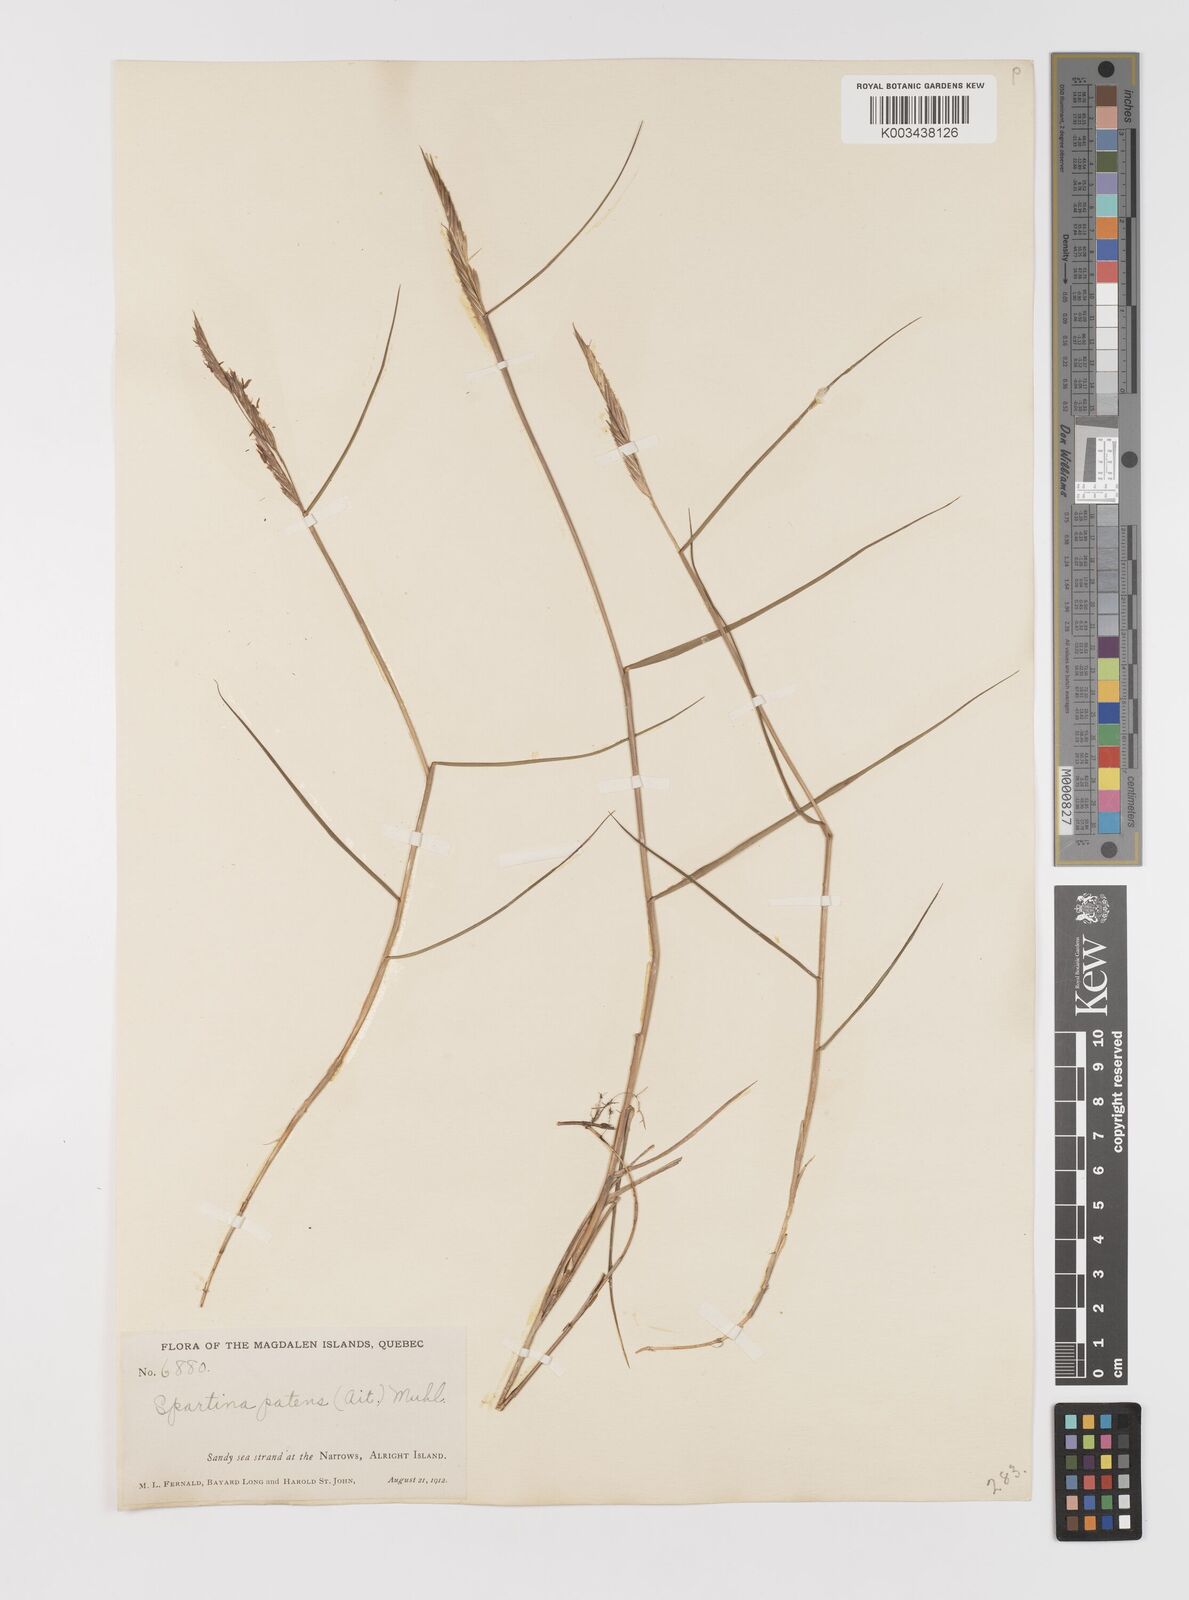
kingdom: Plantae
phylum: Tracheophyta
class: Liliopsida
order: Poales
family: Poaceae
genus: Sporobolus
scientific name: Sporobolus pumilus
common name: Highwater grass
